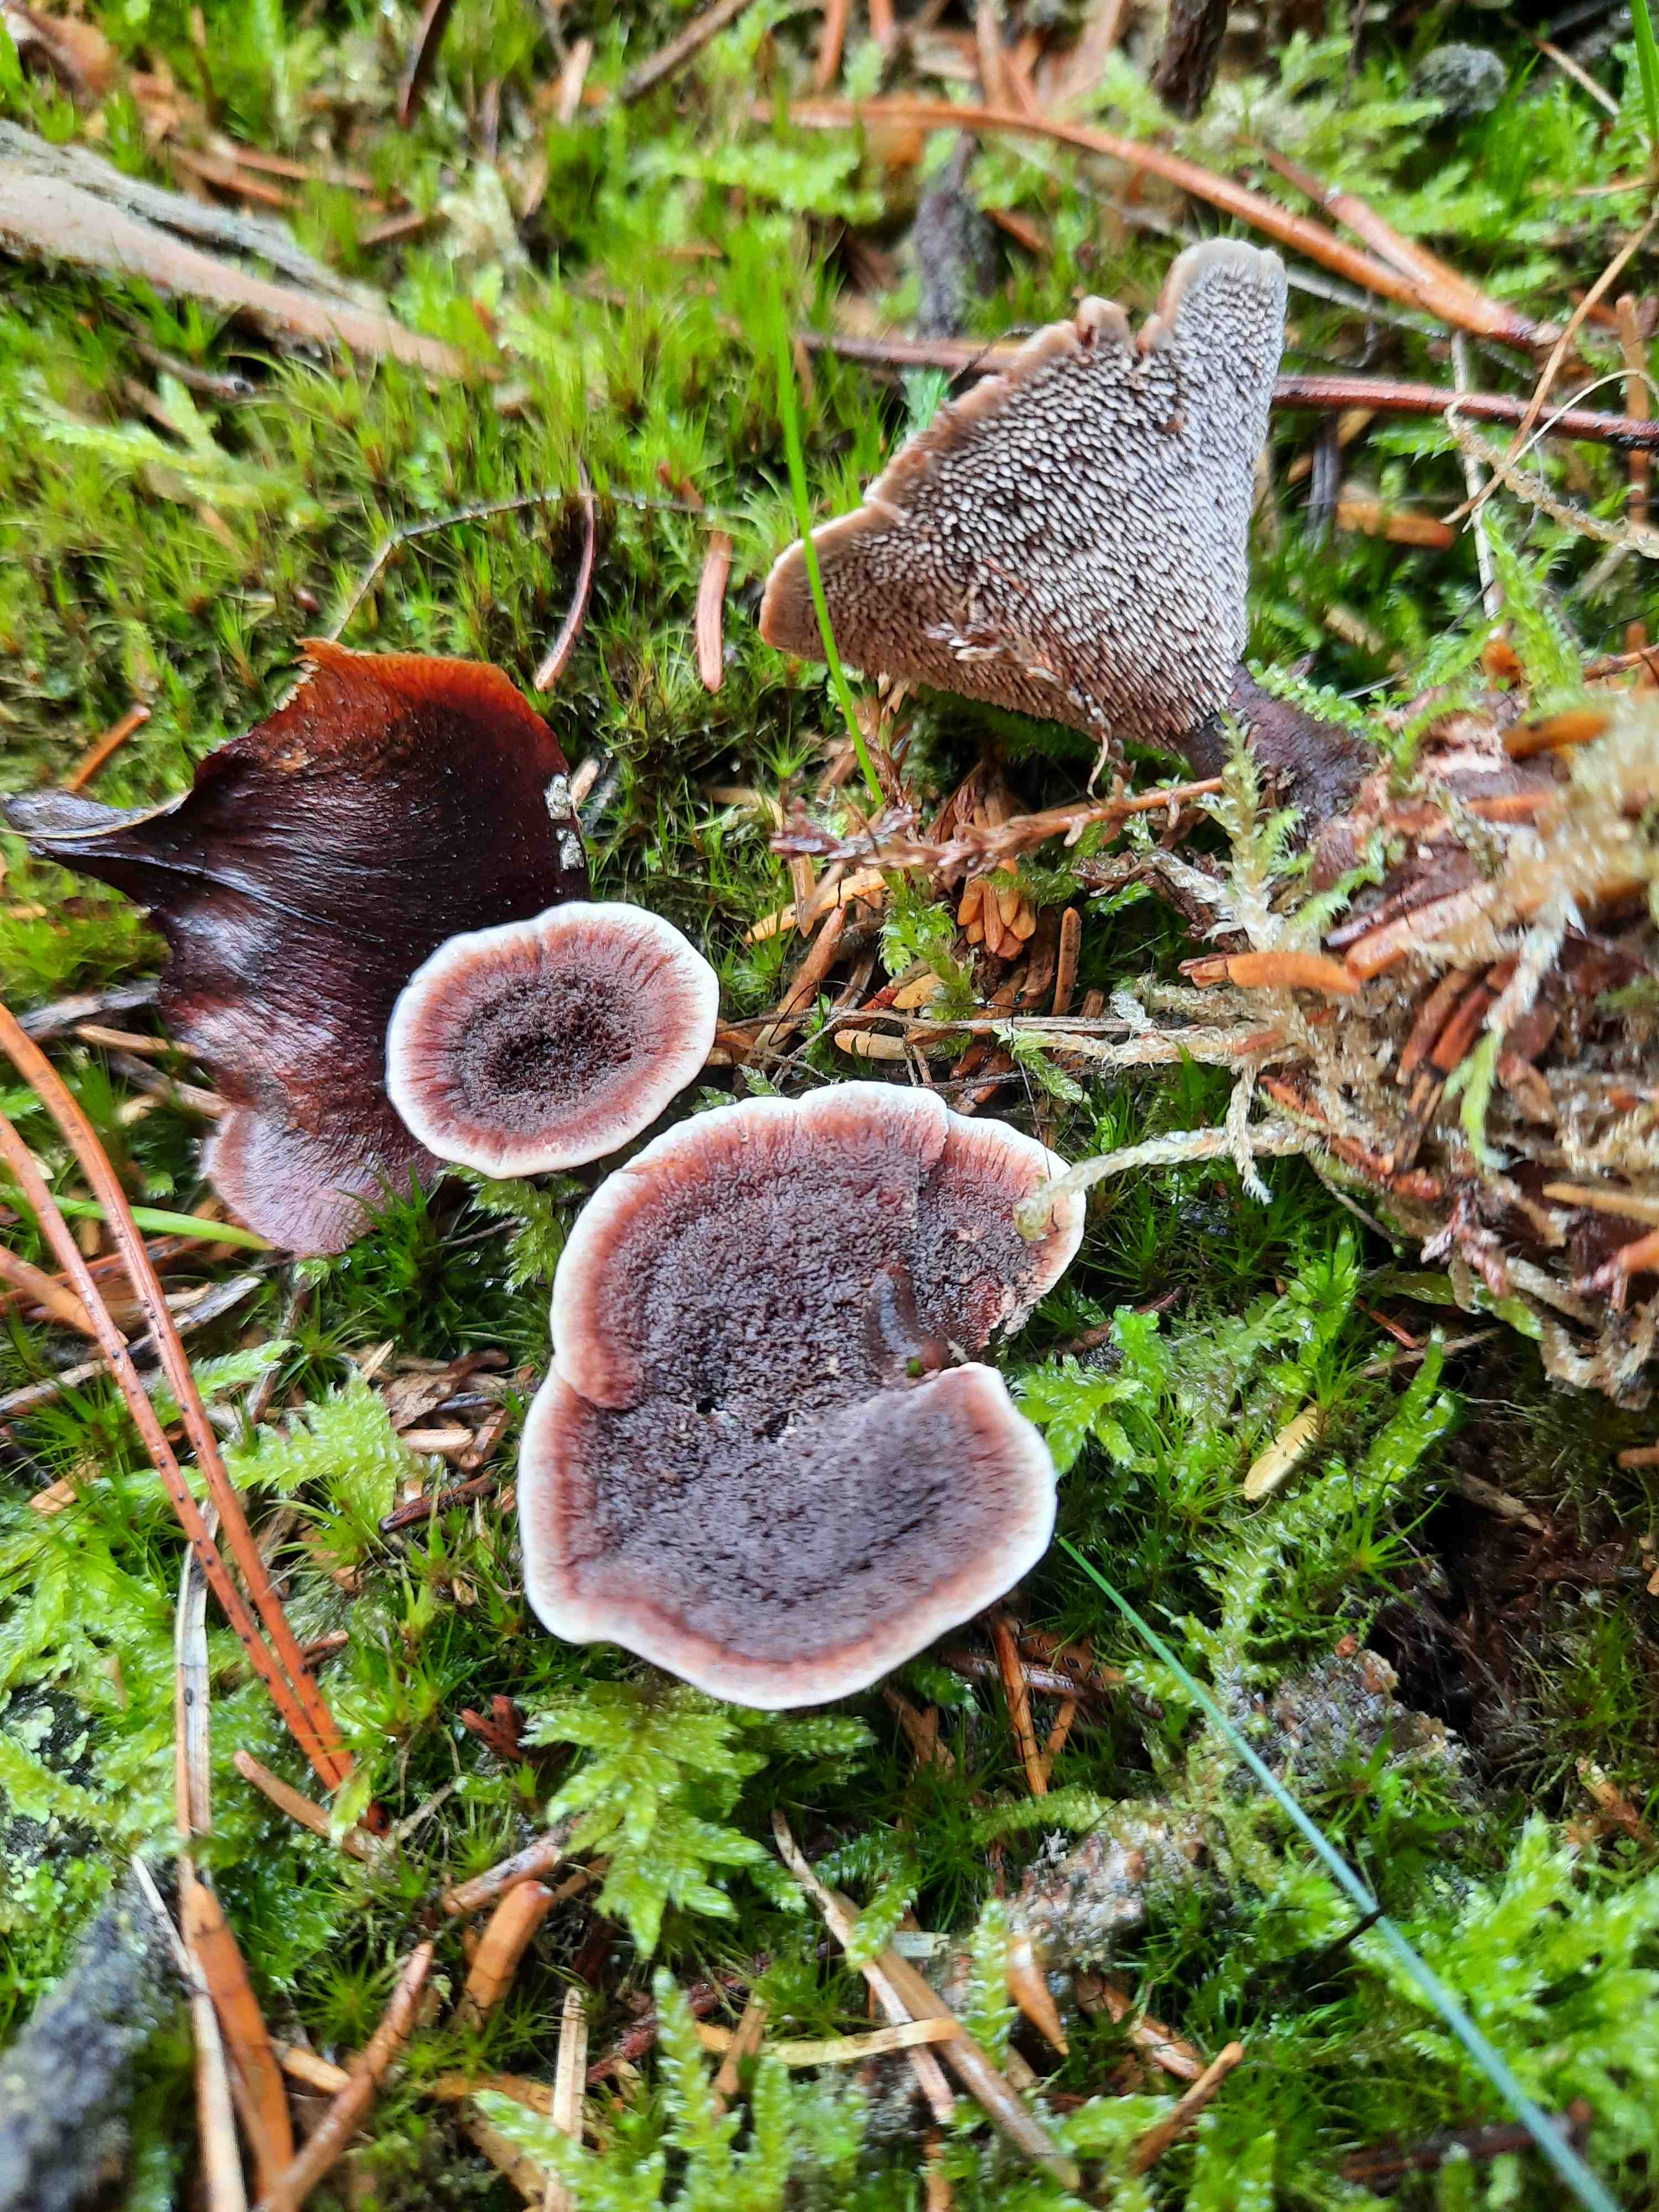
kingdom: Fungi
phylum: Basidiomycota
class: Agaricomycetes
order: Thelephorales
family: Bankeraceae
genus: Hydnellum
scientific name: Hydnellum cumulatum
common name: Rosette tooth
